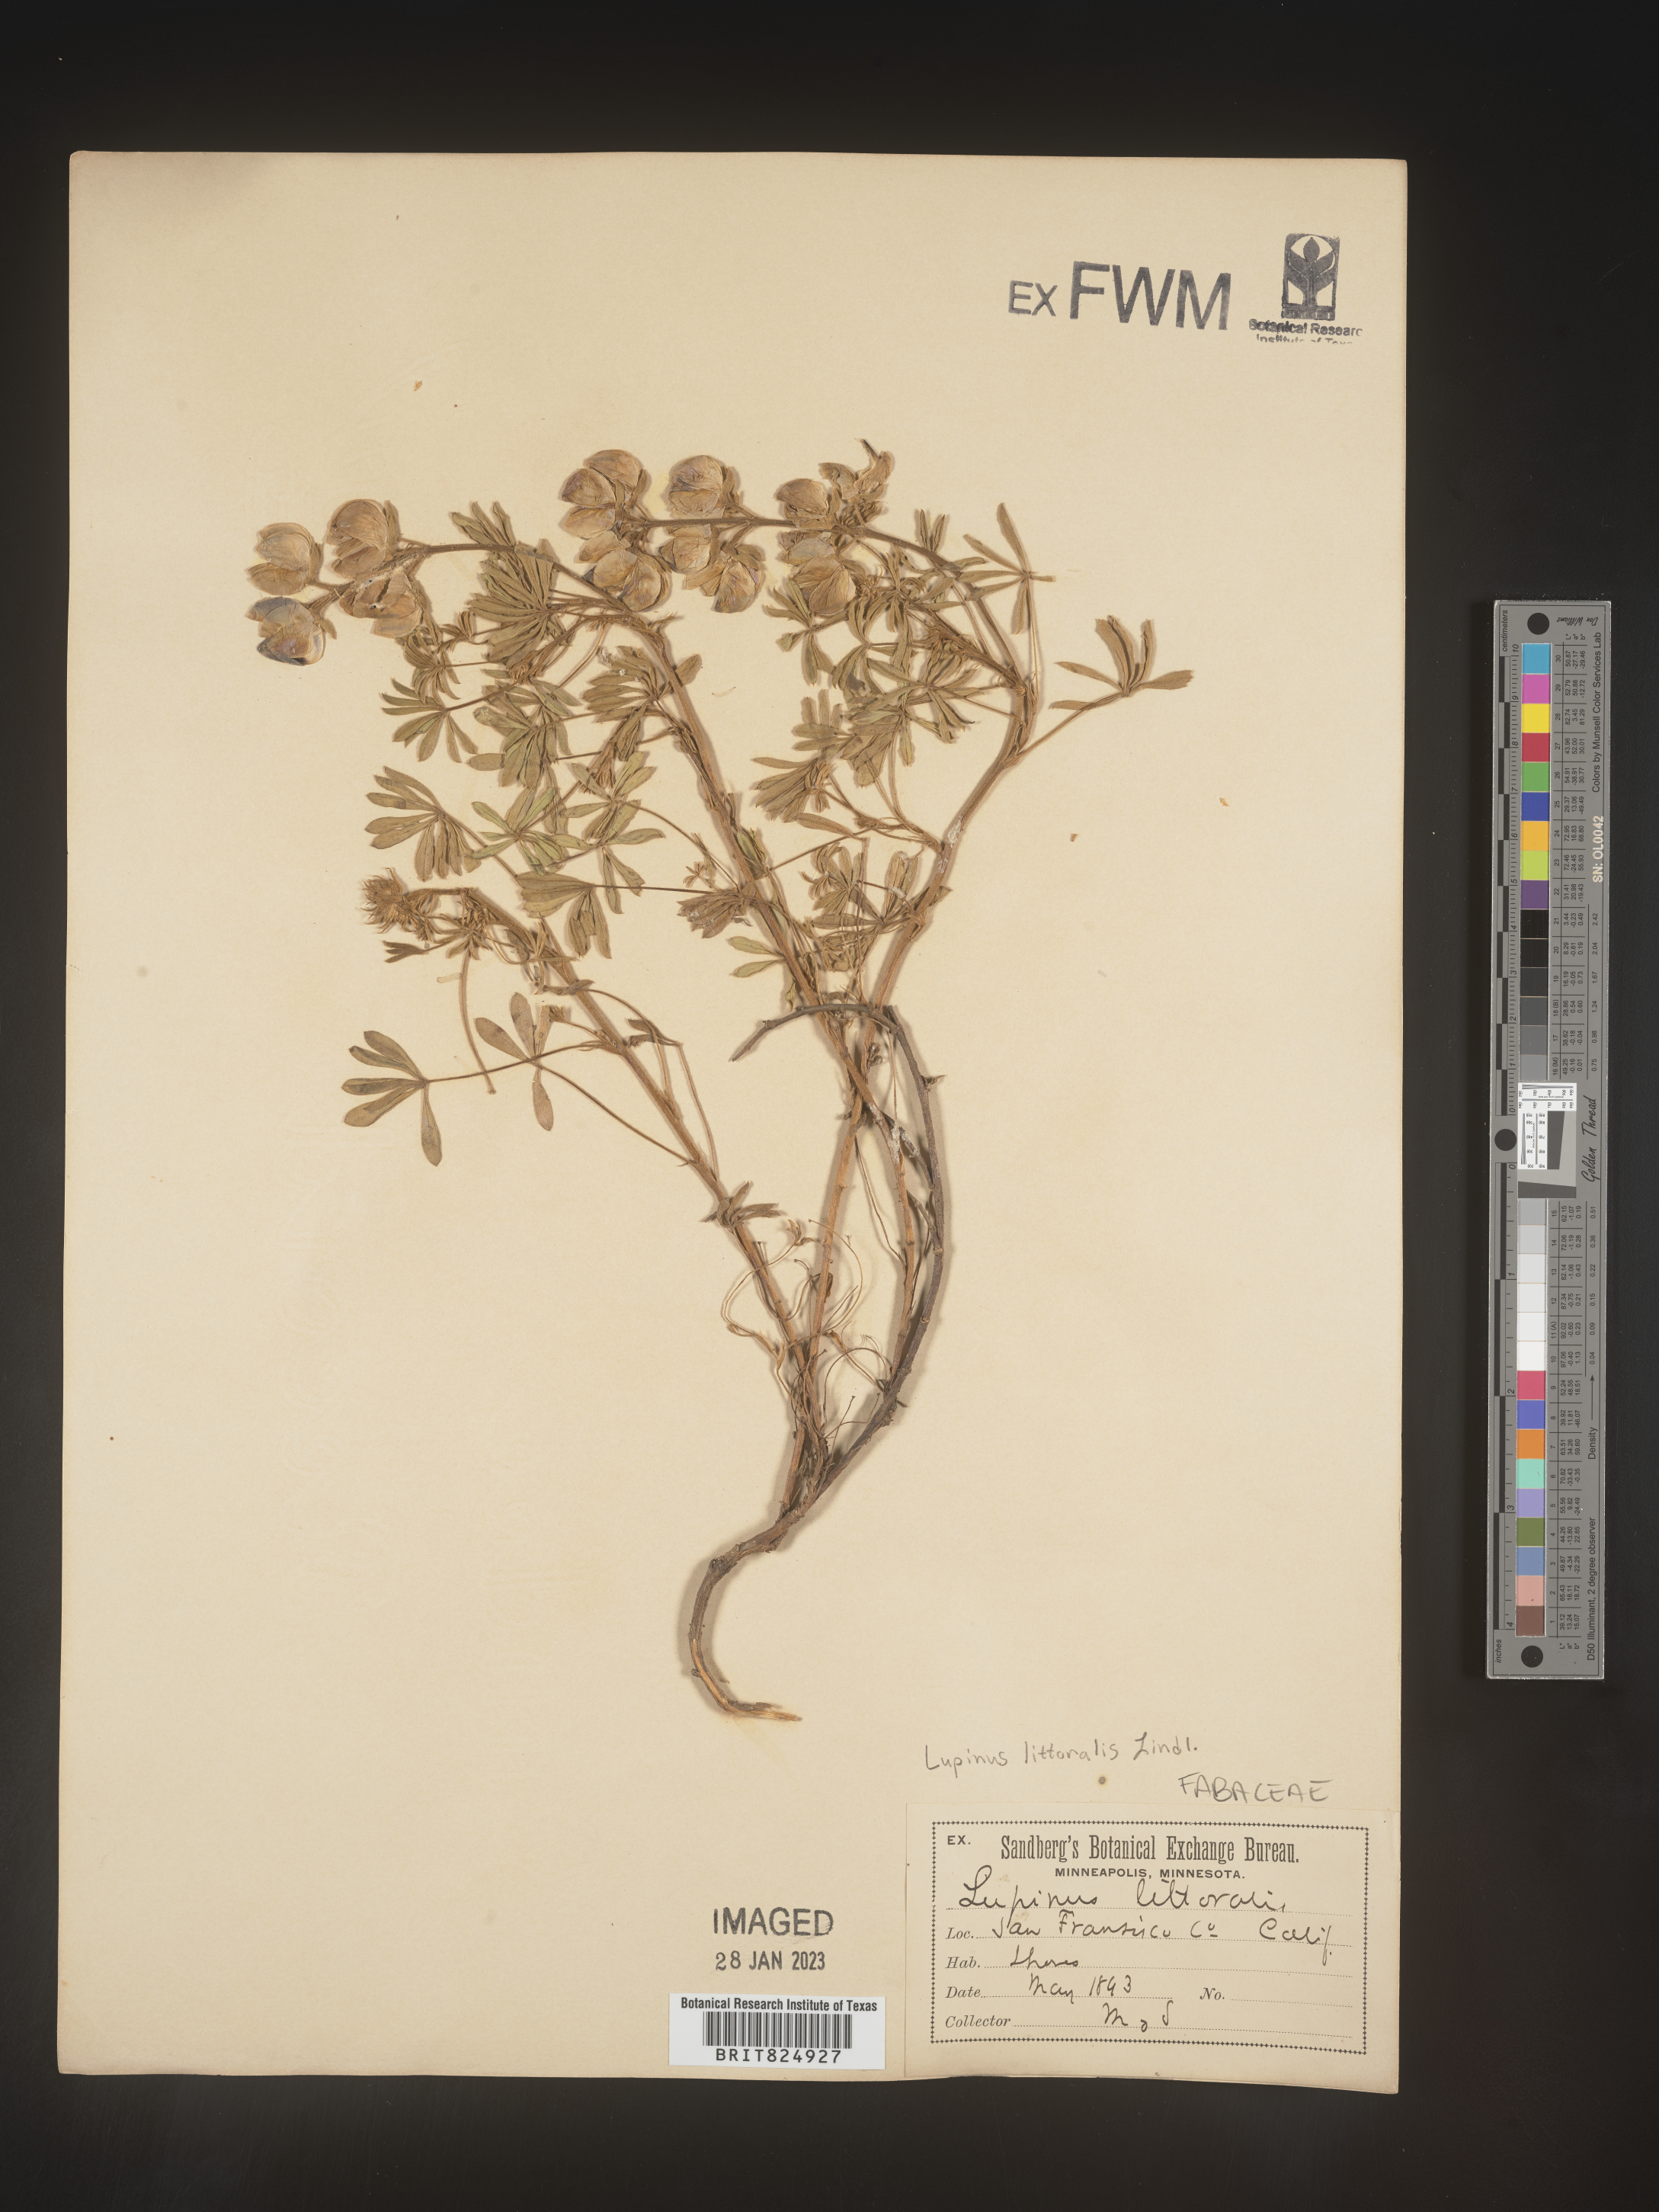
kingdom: Plantae
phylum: Tracheophyta
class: Magnoliopsida
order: Fabales
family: Fabaceae
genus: Lupinus
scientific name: Lupinus
